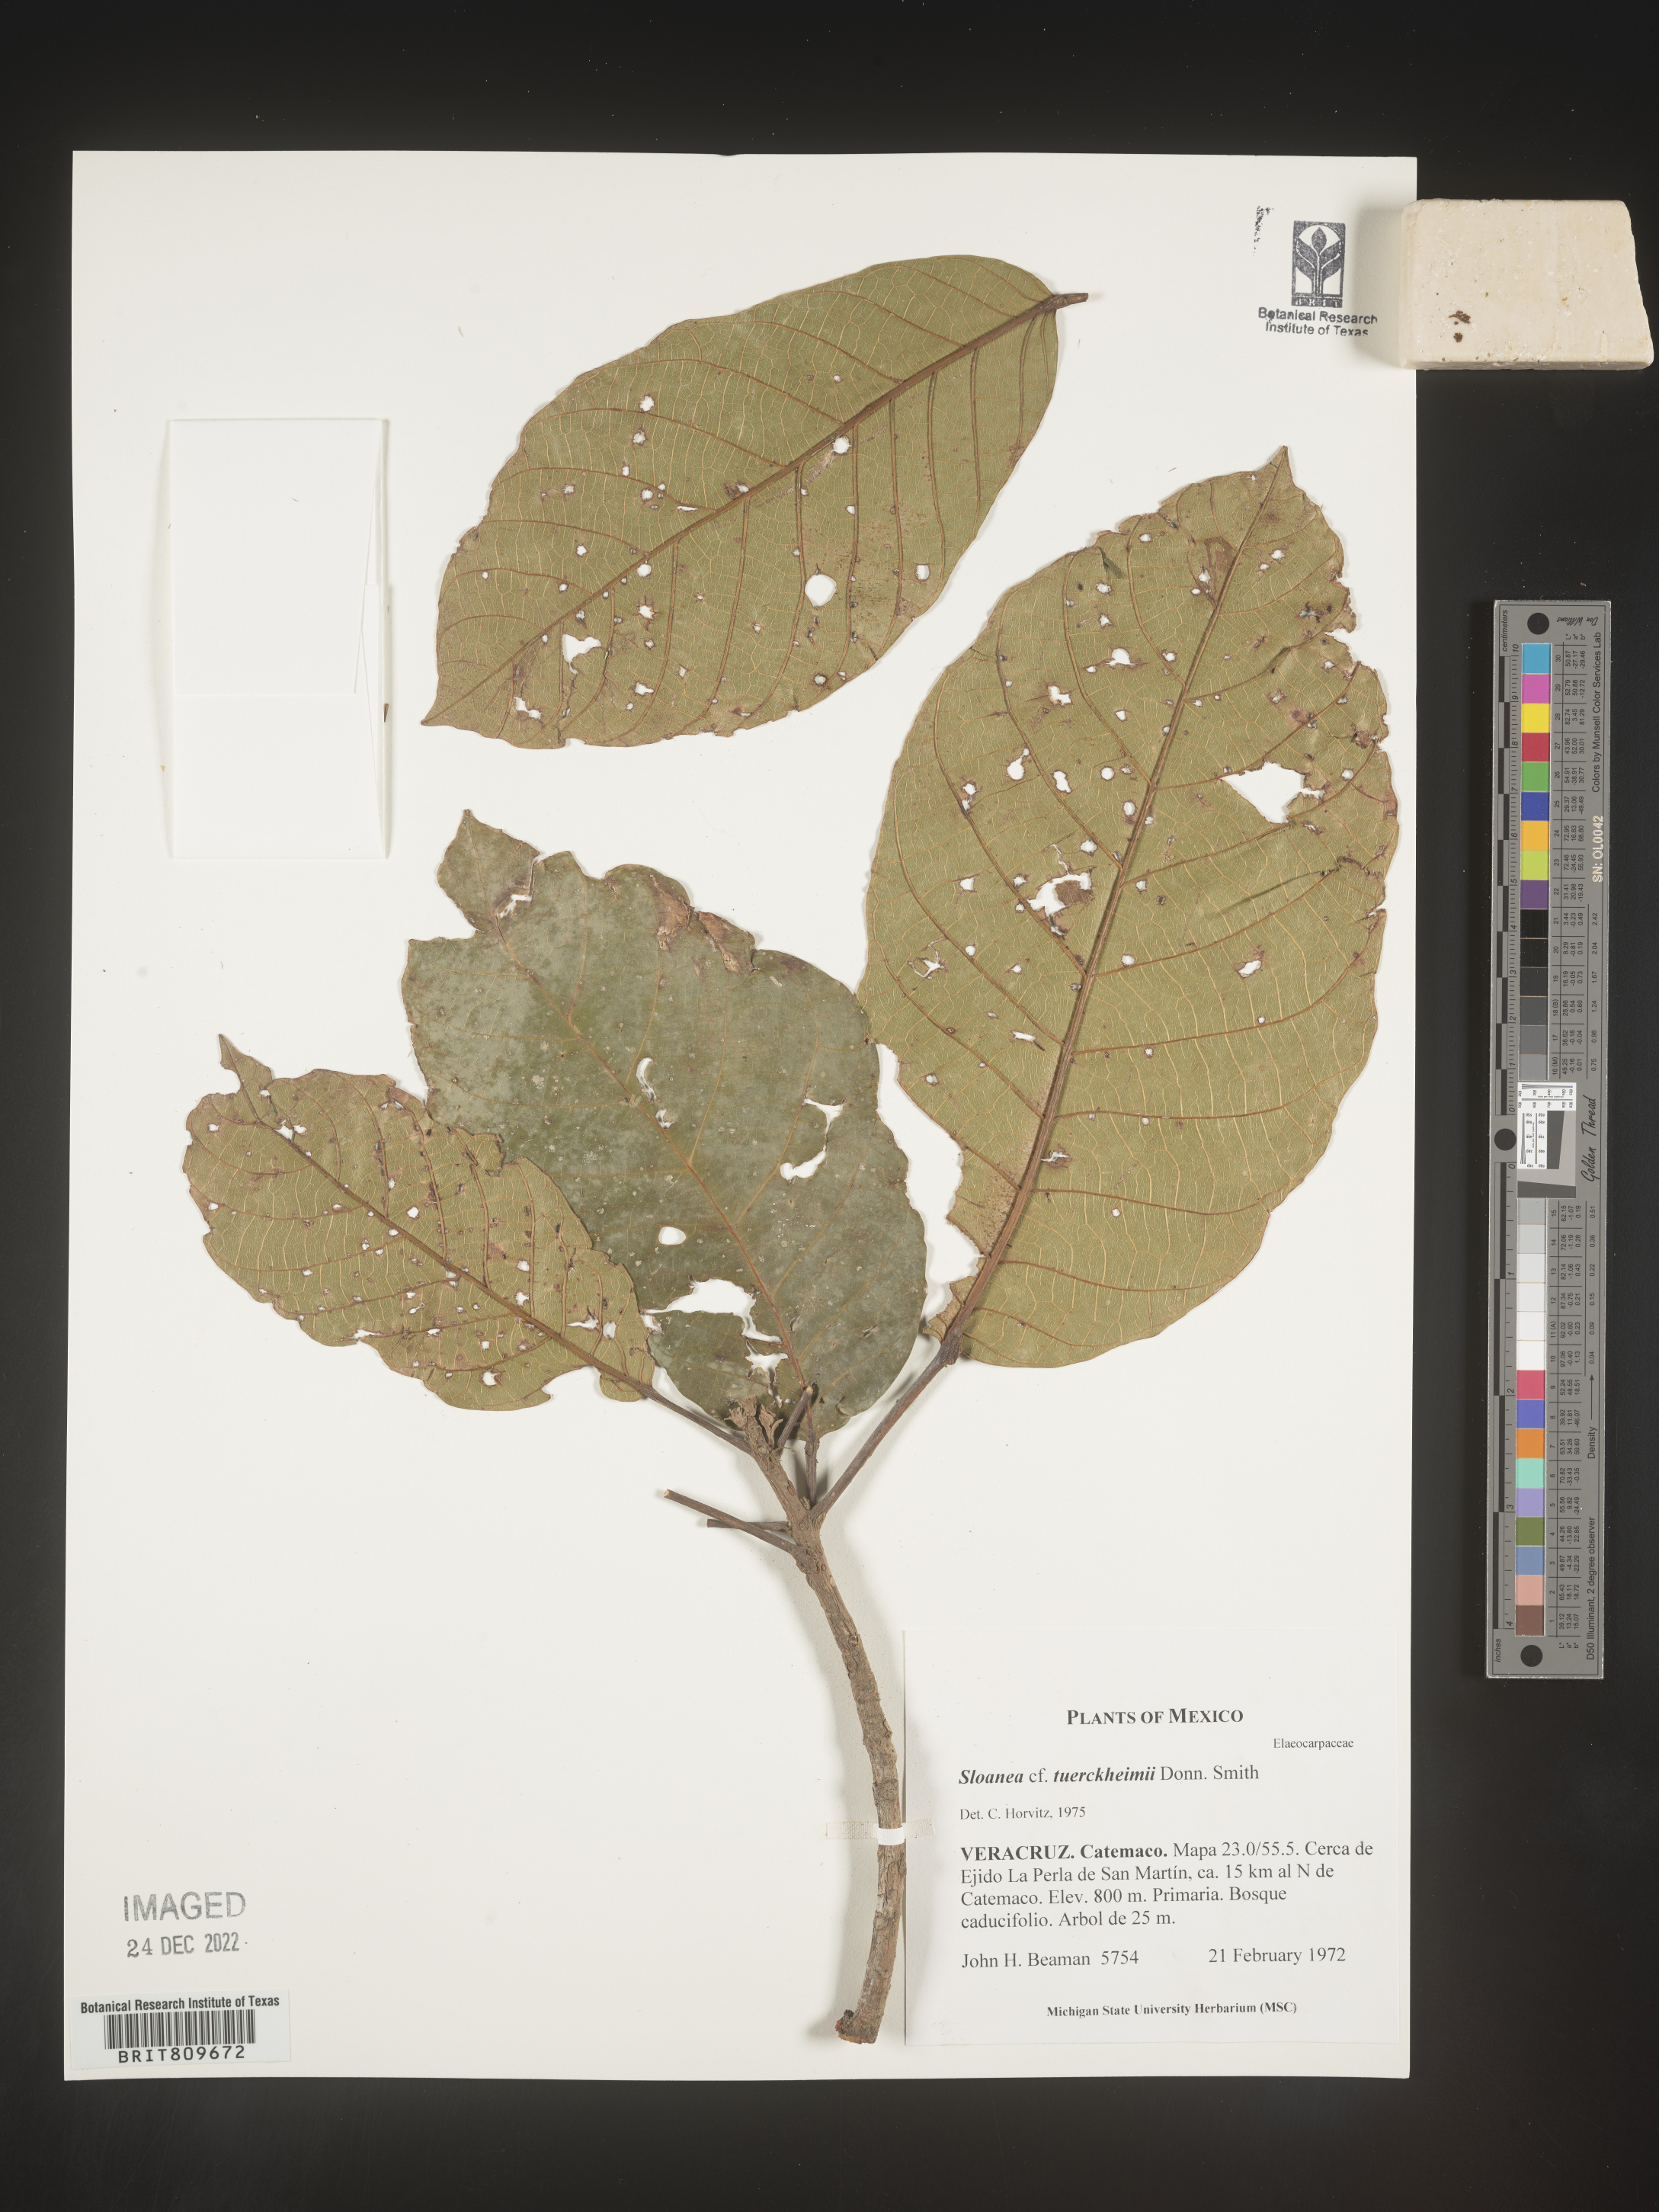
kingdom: Plantae
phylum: Tracheophyta
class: Magnoliopsida
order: Oxalidales
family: Elaeocarpaceae
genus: Sloanea
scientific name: Sloanea
